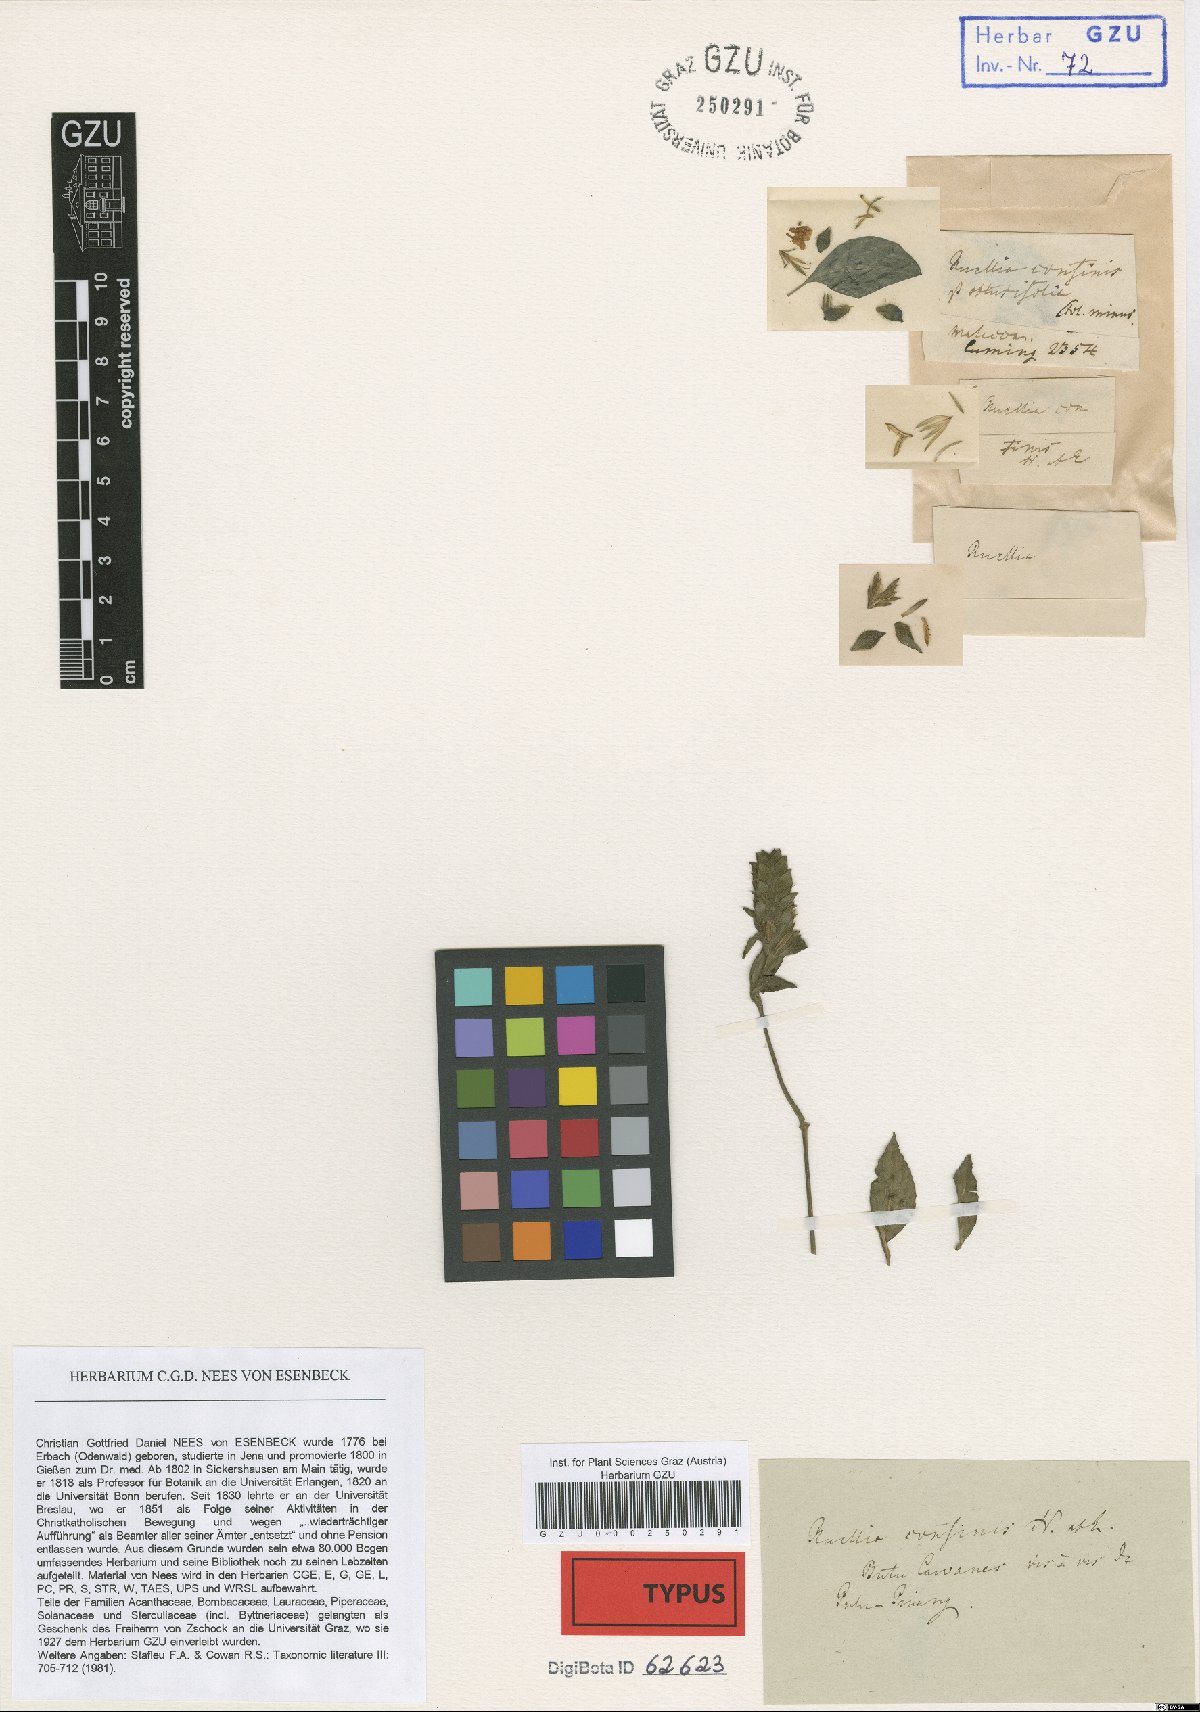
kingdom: Plantae
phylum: Tracheophyta
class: Magnoliopsida
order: Lamiales
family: Acanthaceae
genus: Strobilanthes
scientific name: Strobilanthes brunelloides
